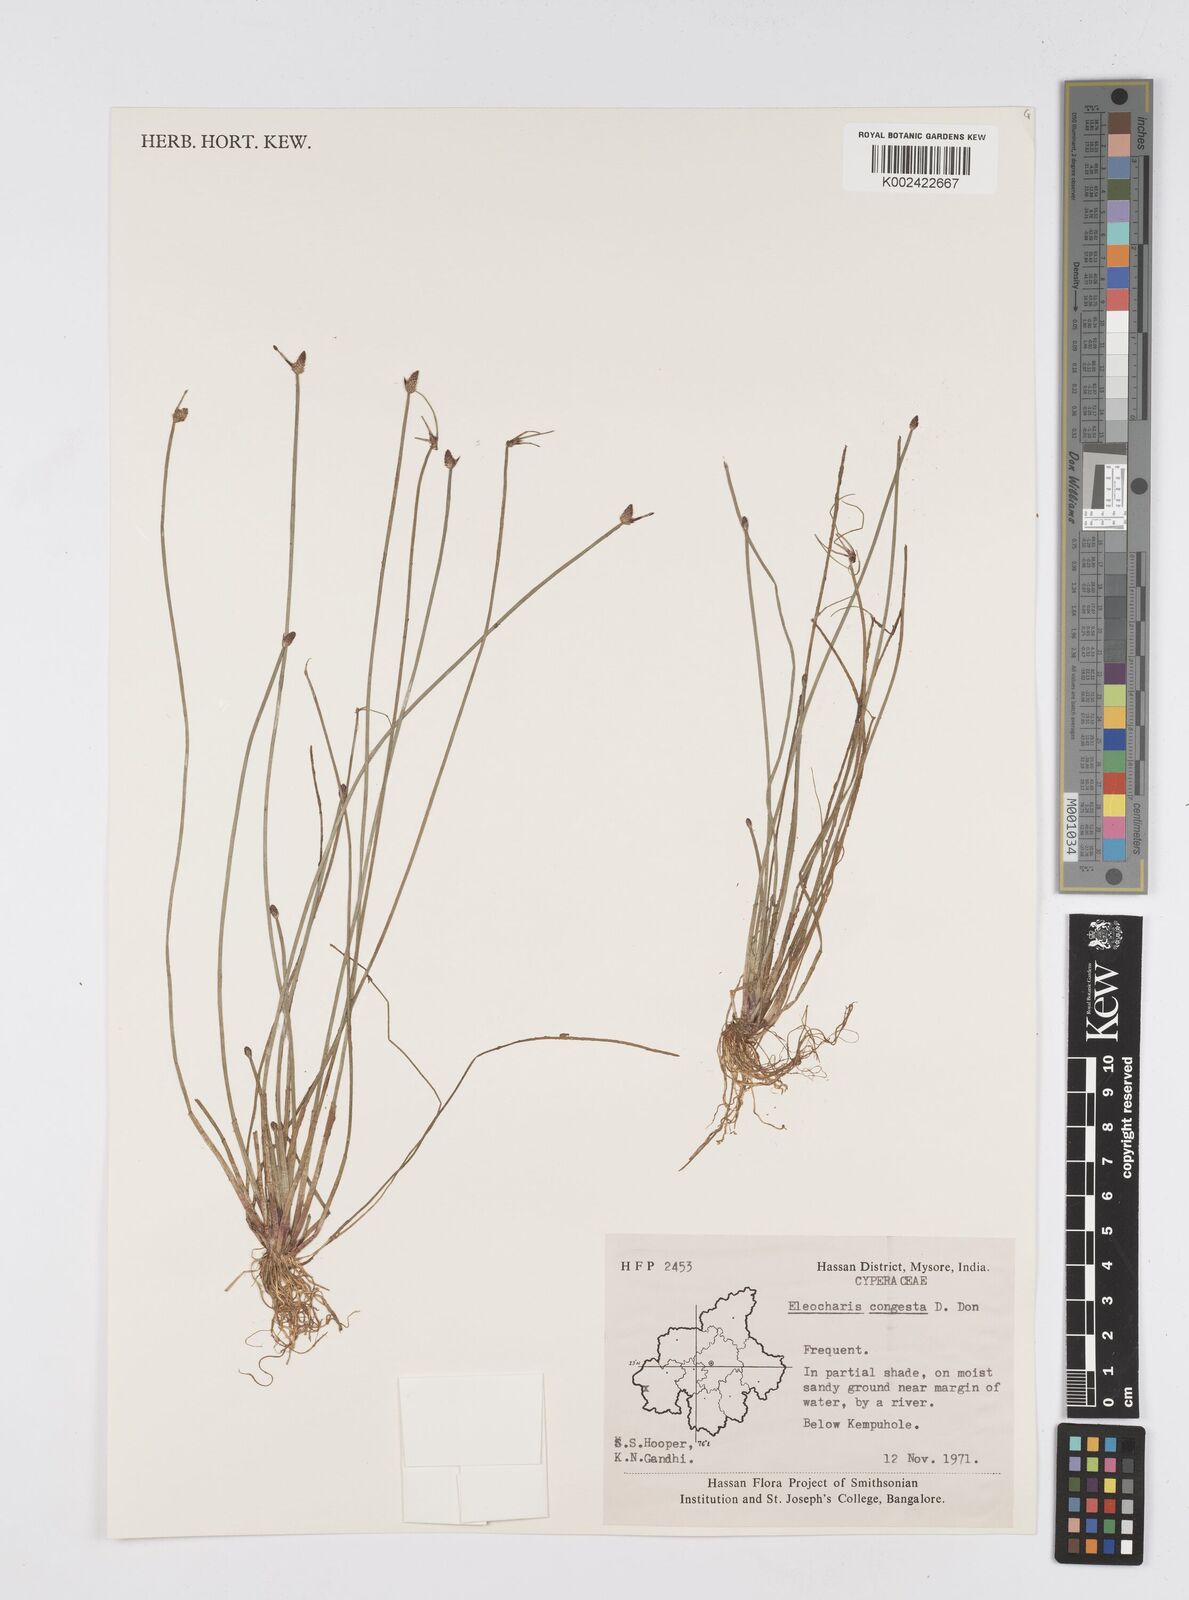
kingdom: Plantae
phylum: Tracheophyta
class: Liliopsida
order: Poales
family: Cyperaceae
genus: Eleocharis
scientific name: Eleocharis congesta
